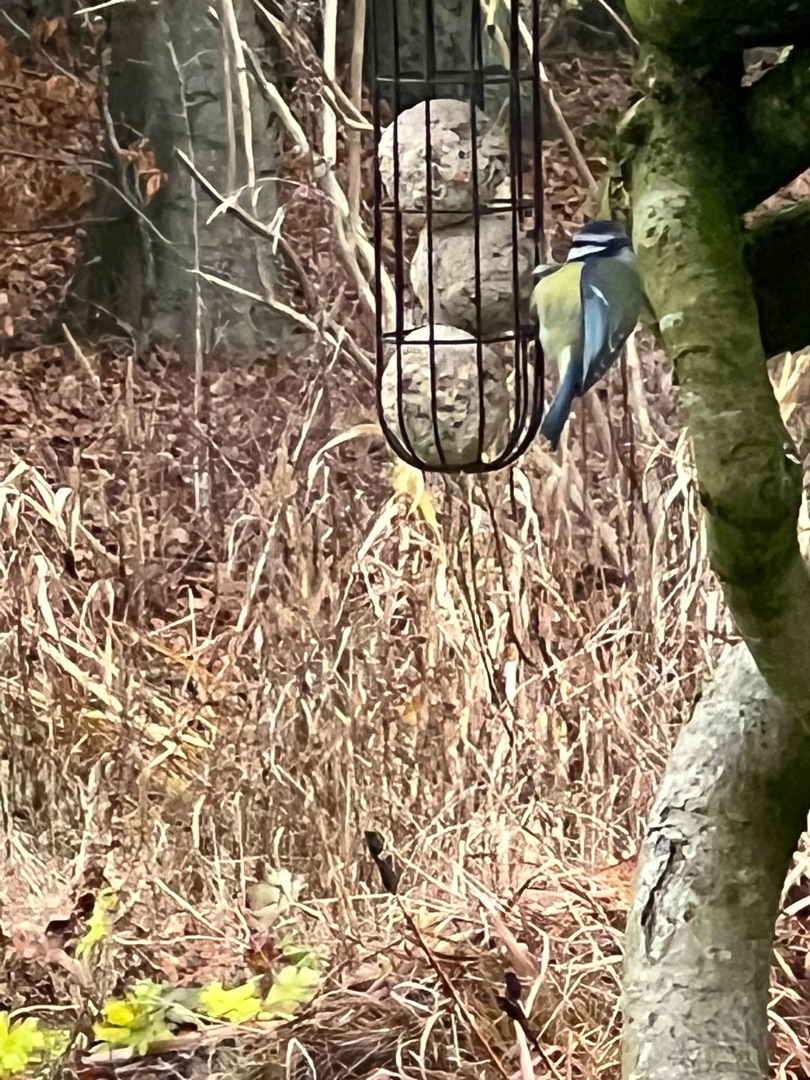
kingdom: Animalia
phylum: Chordata
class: Aves
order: Passeriformes
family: Paridae
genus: Cyanistes
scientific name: Cyanistes caeruleus
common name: Blåmejse
